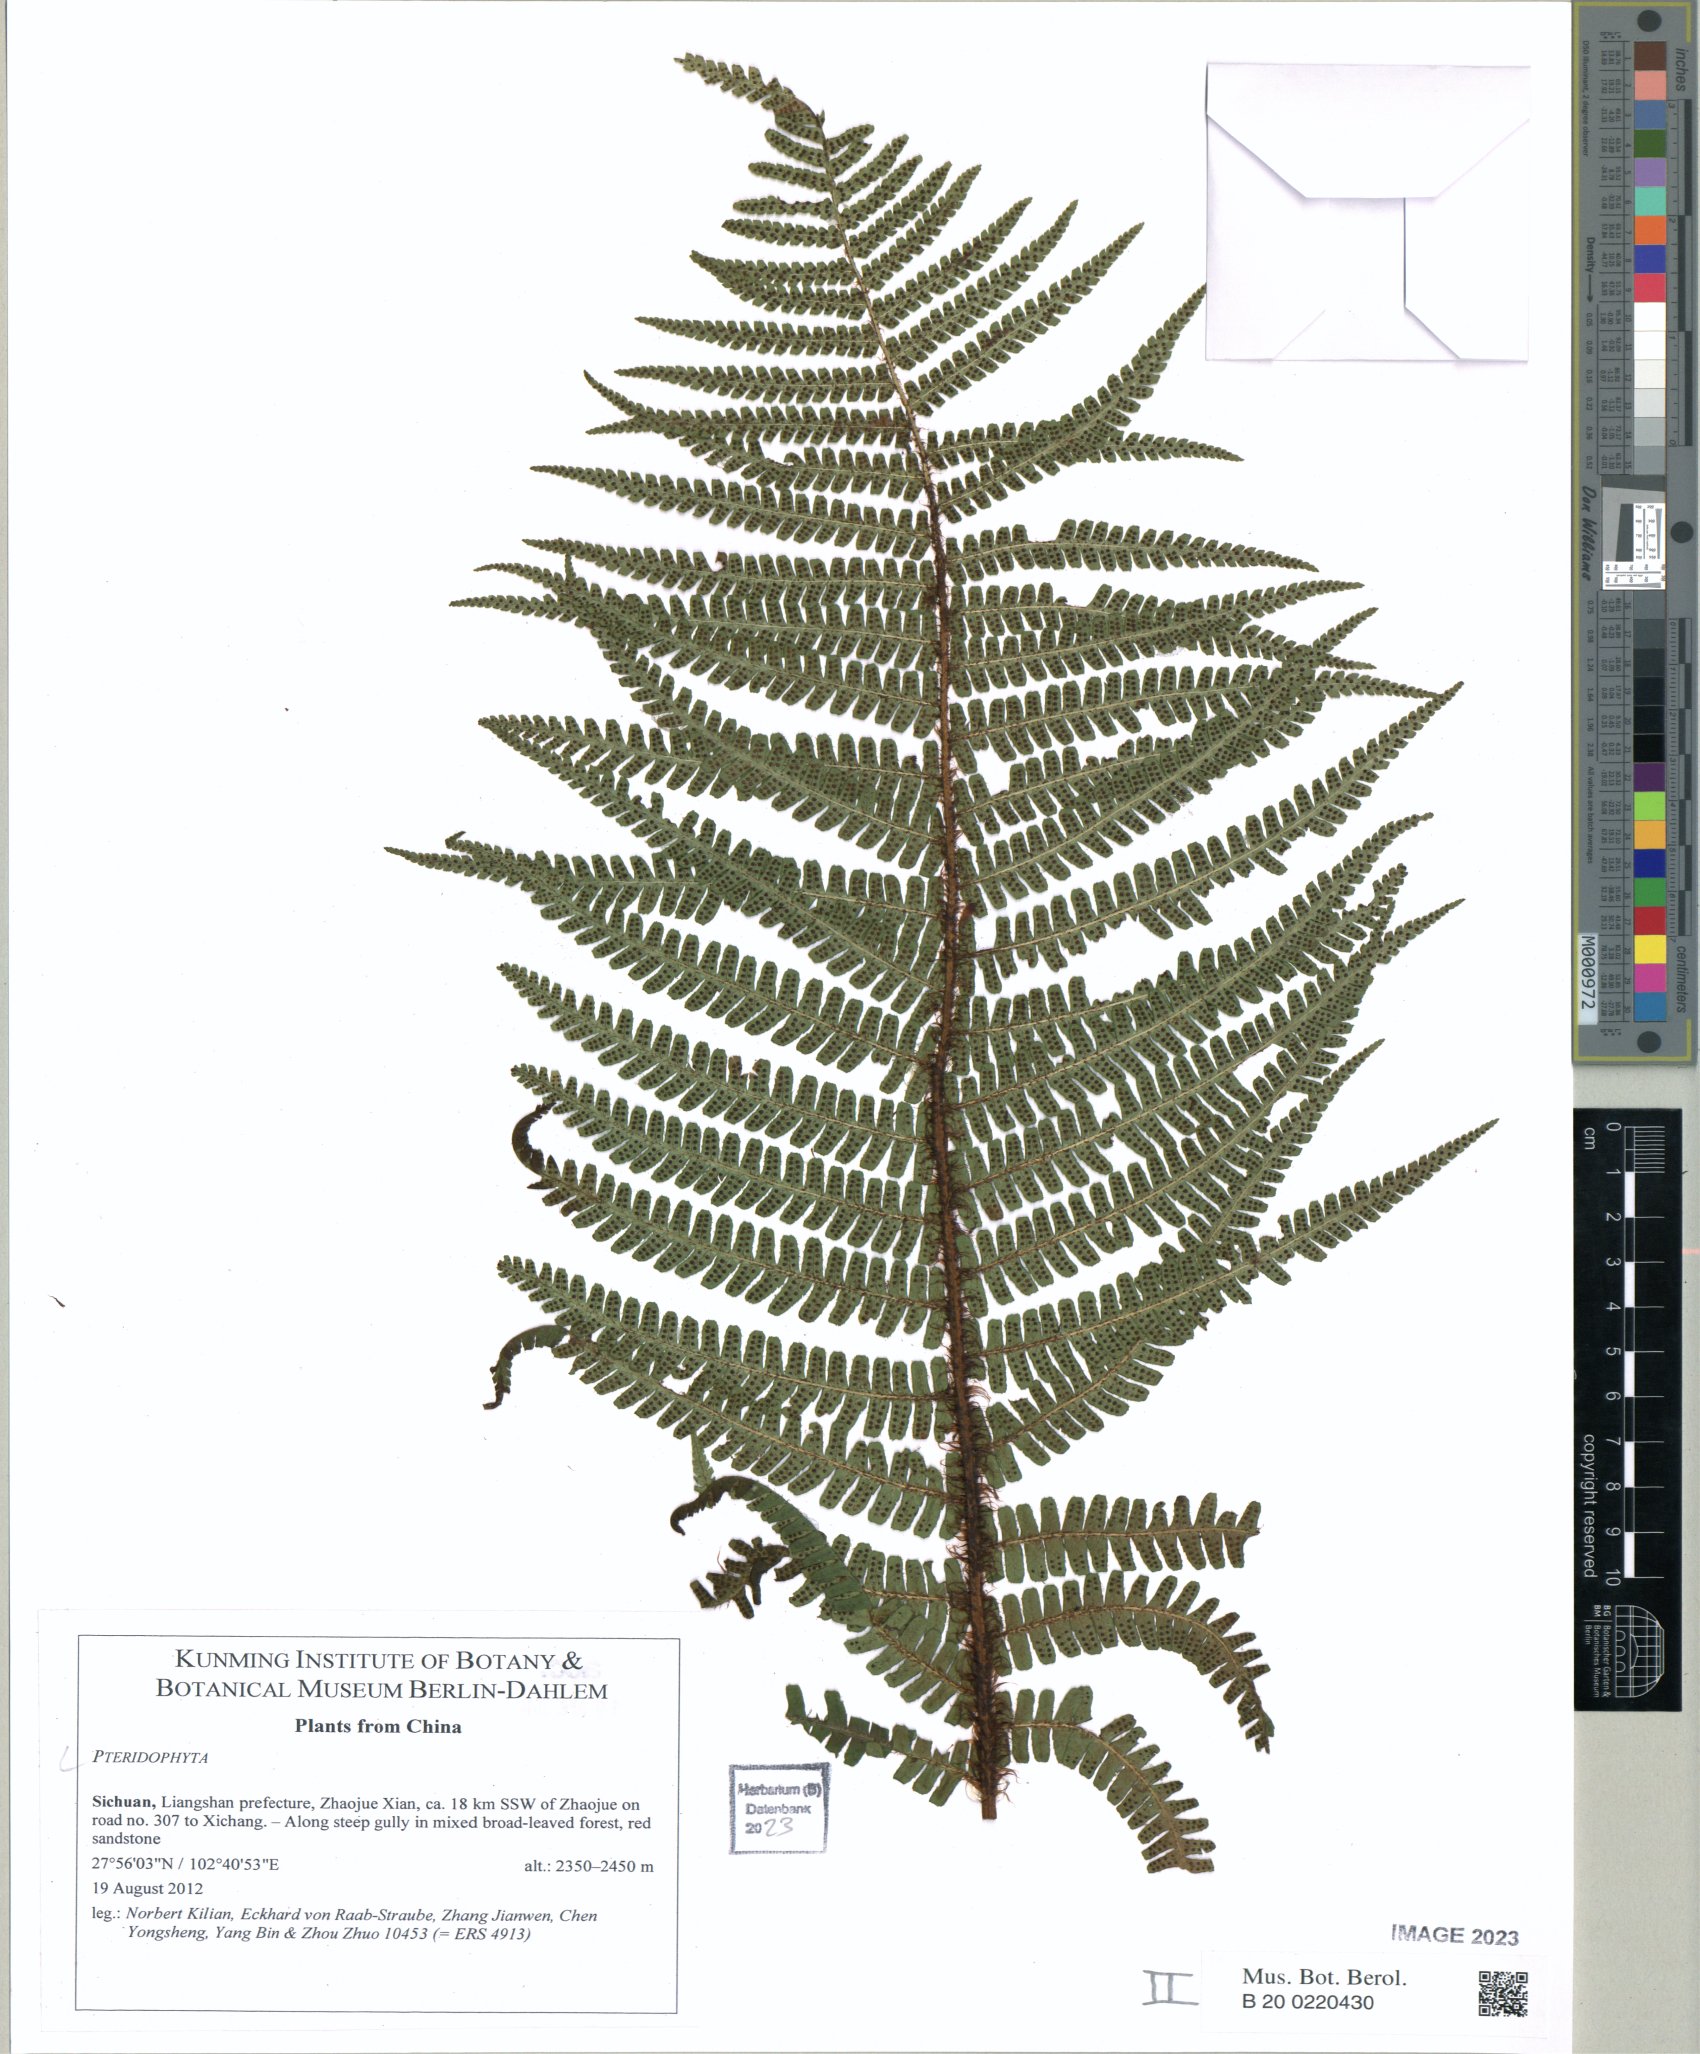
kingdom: Plantae
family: Pteridophyta
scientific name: Pteridophyta
